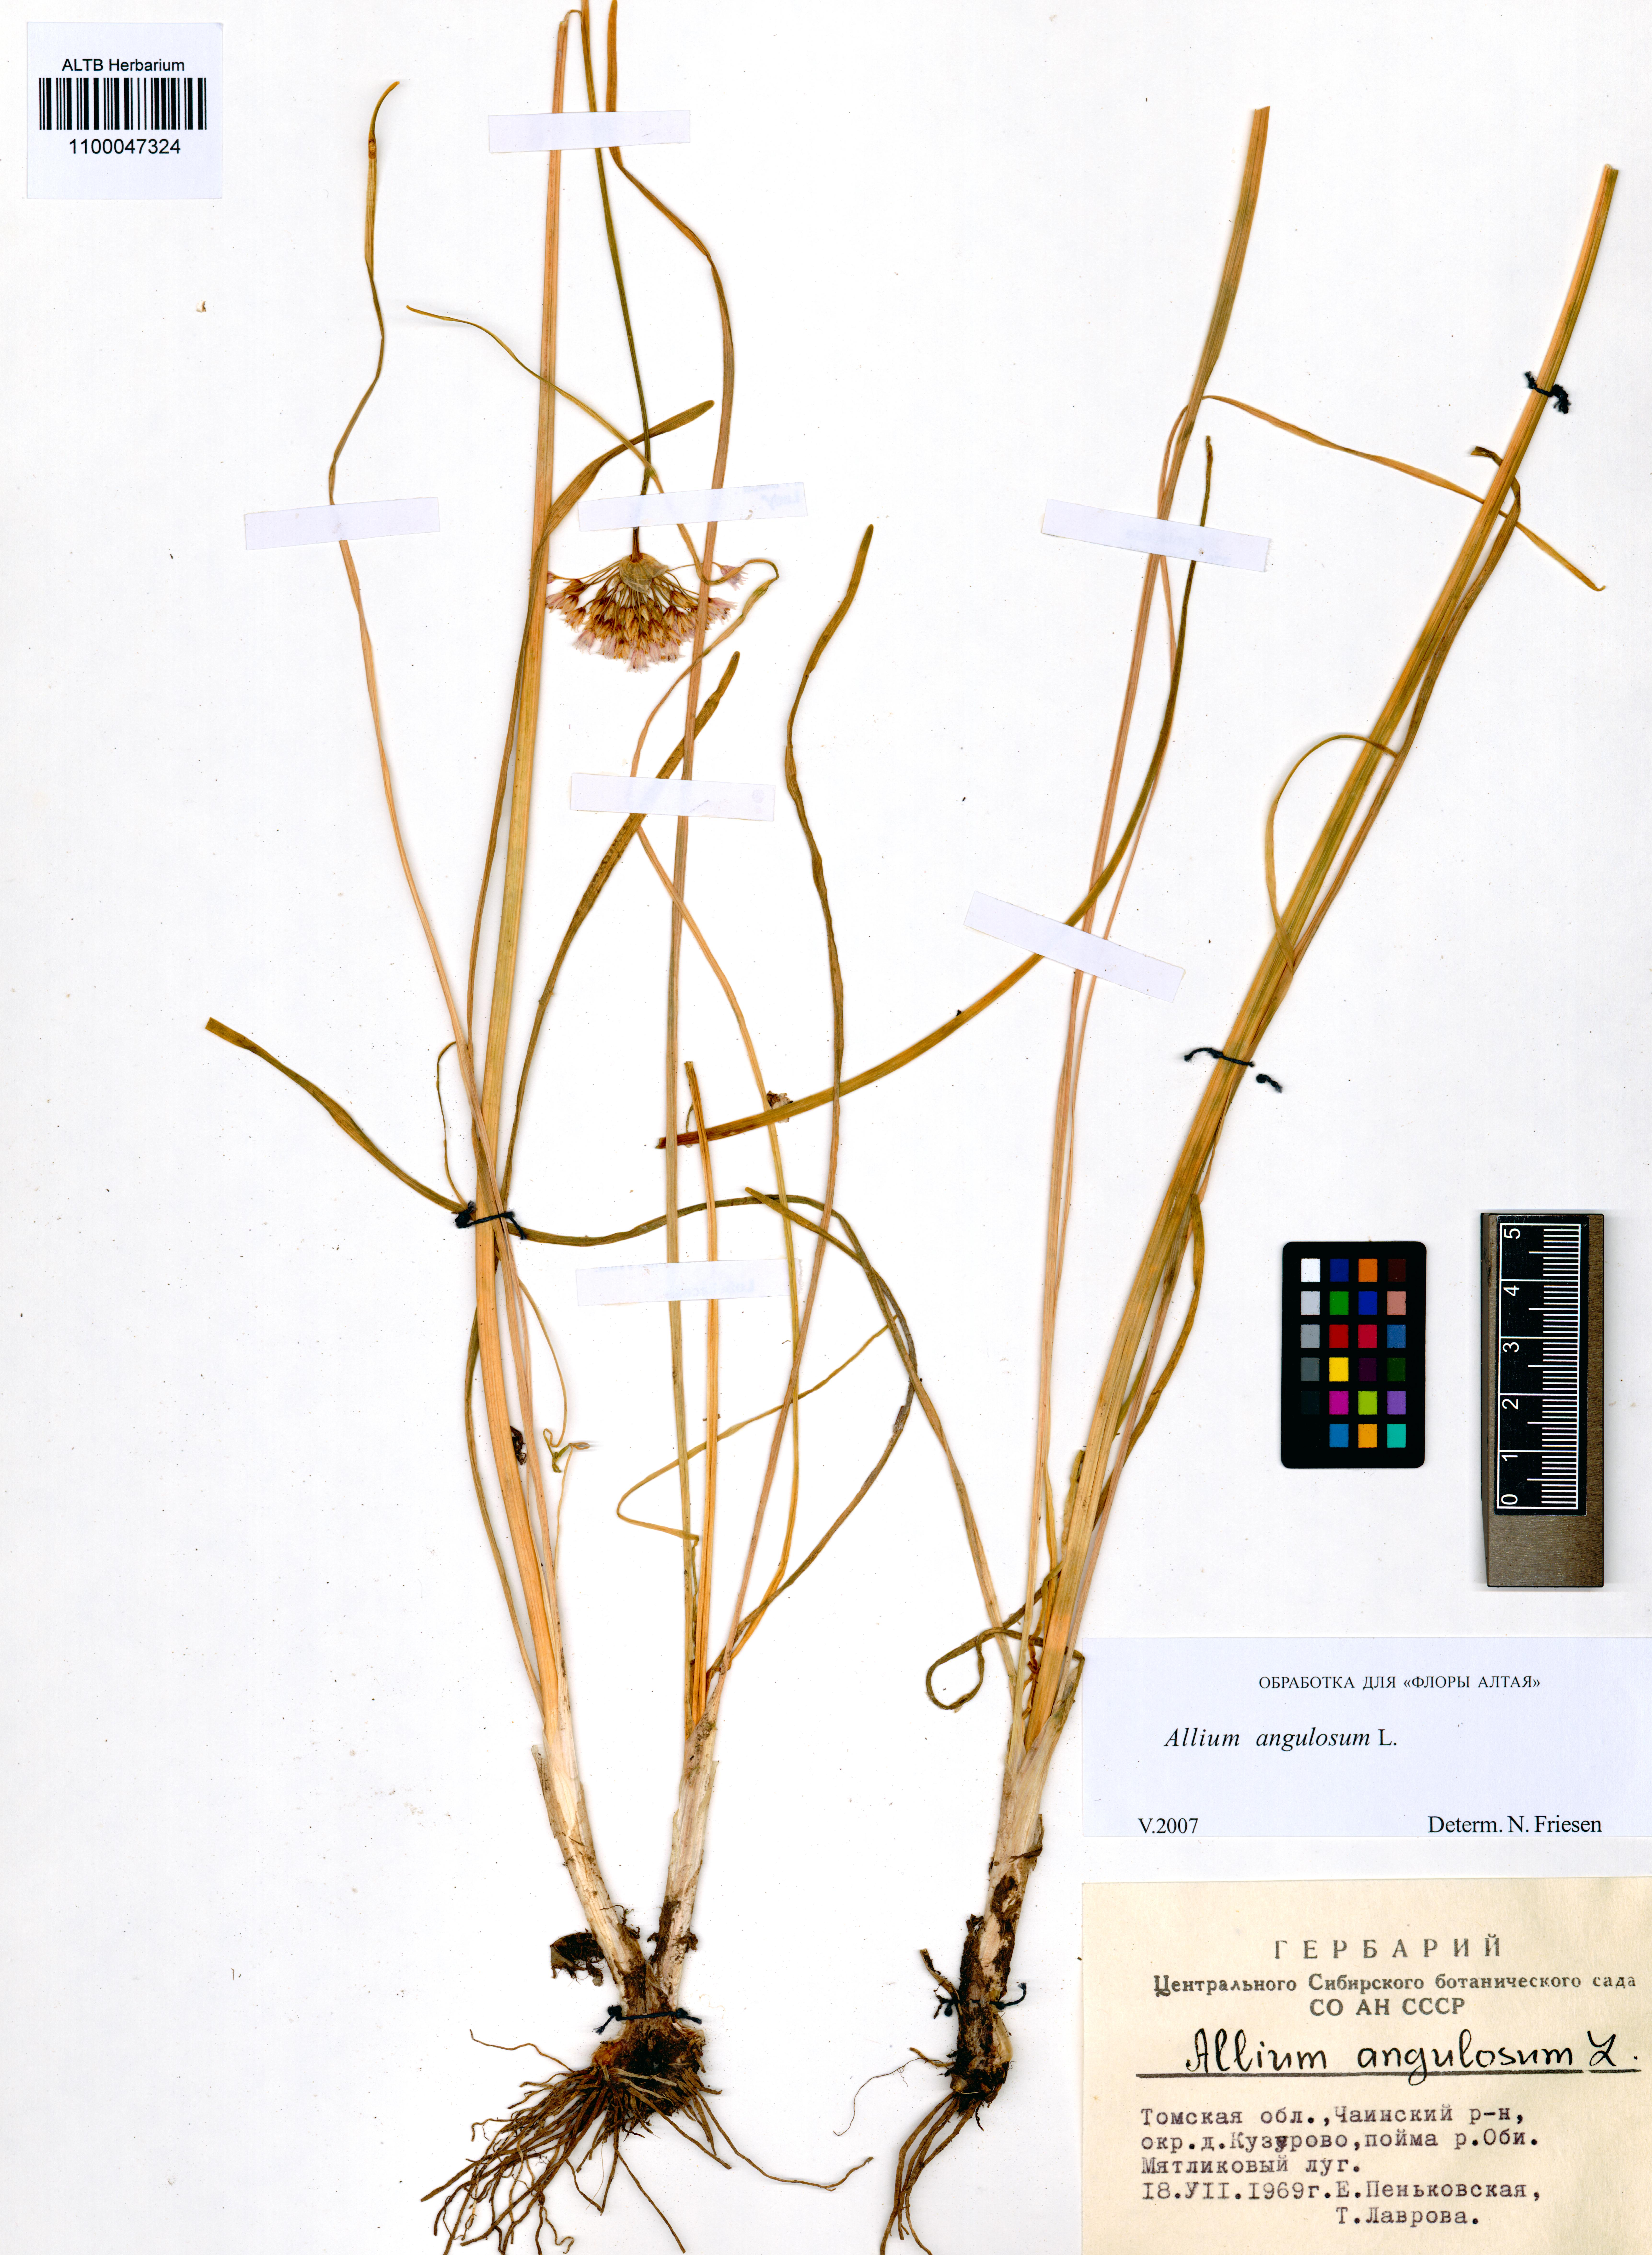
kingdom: Plantae
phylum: Tracheophyta
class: Liliopsida
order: Asparagales
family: Amaryllidaceae
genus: Allium
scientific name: Allium angulosum
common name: Mouse garlic
